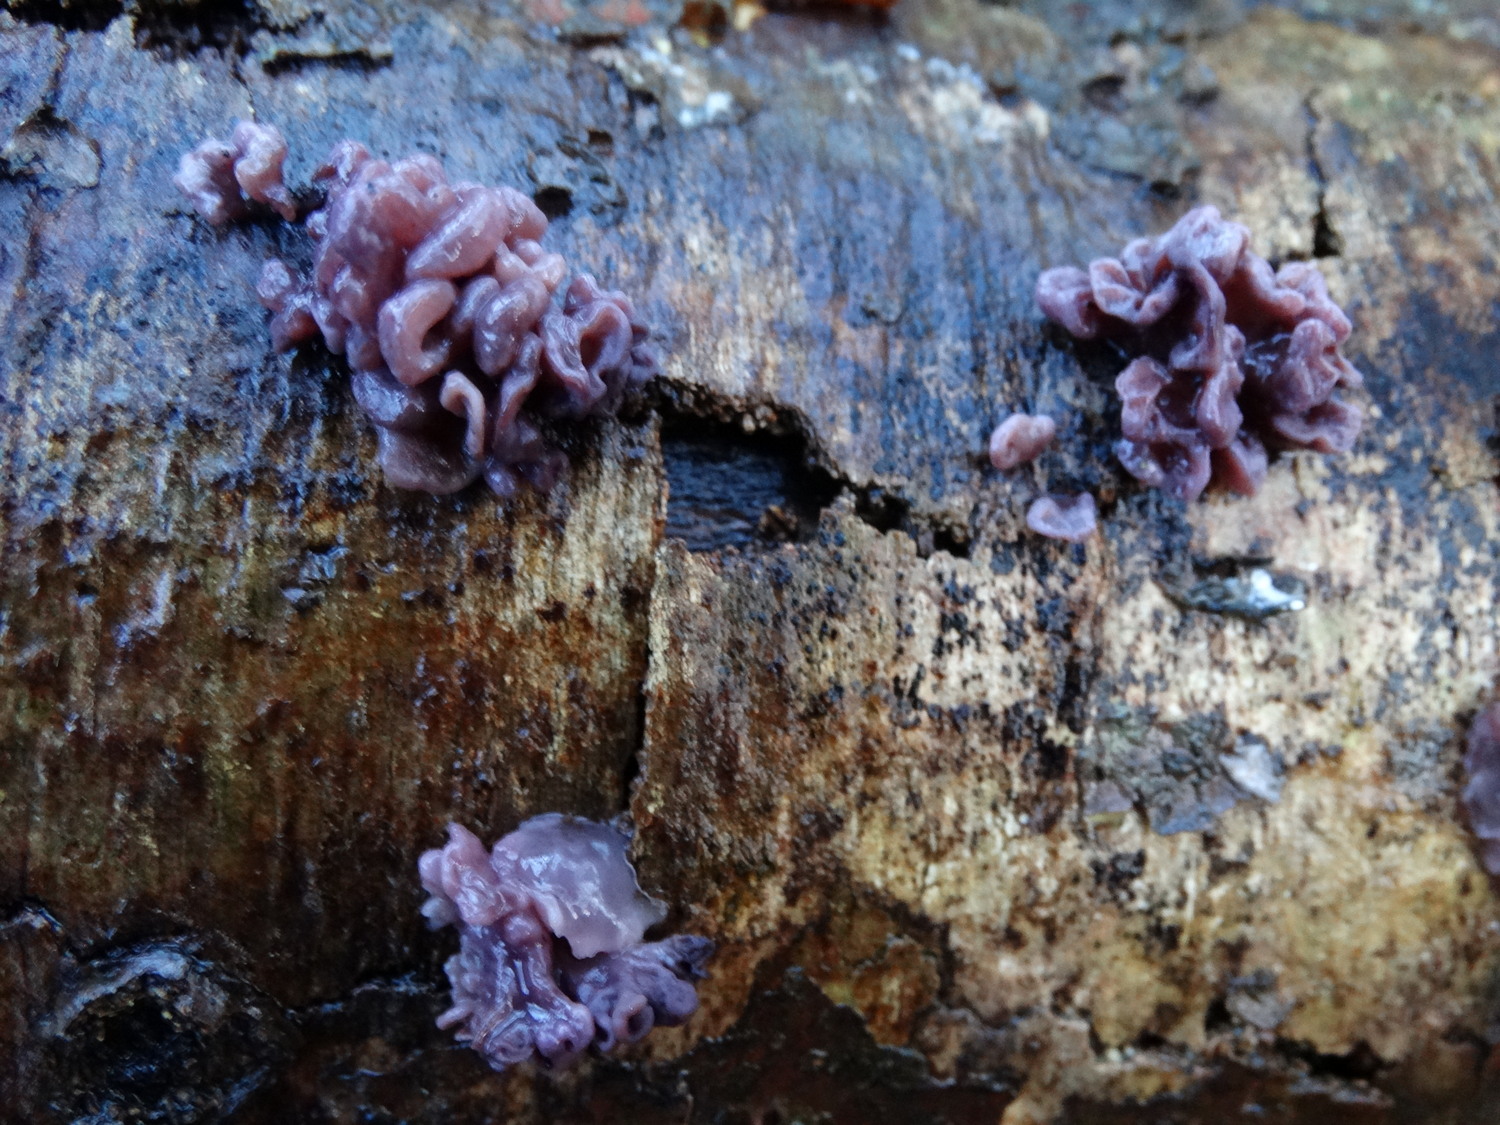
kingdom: Fungi
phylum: Ascomycota
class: Leotiomycetes
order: Helotiales
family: Gelatinodiscaceae
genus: Ascocoryne
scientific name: Ascocoryne sarcoides
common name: rødlilla sejskive
